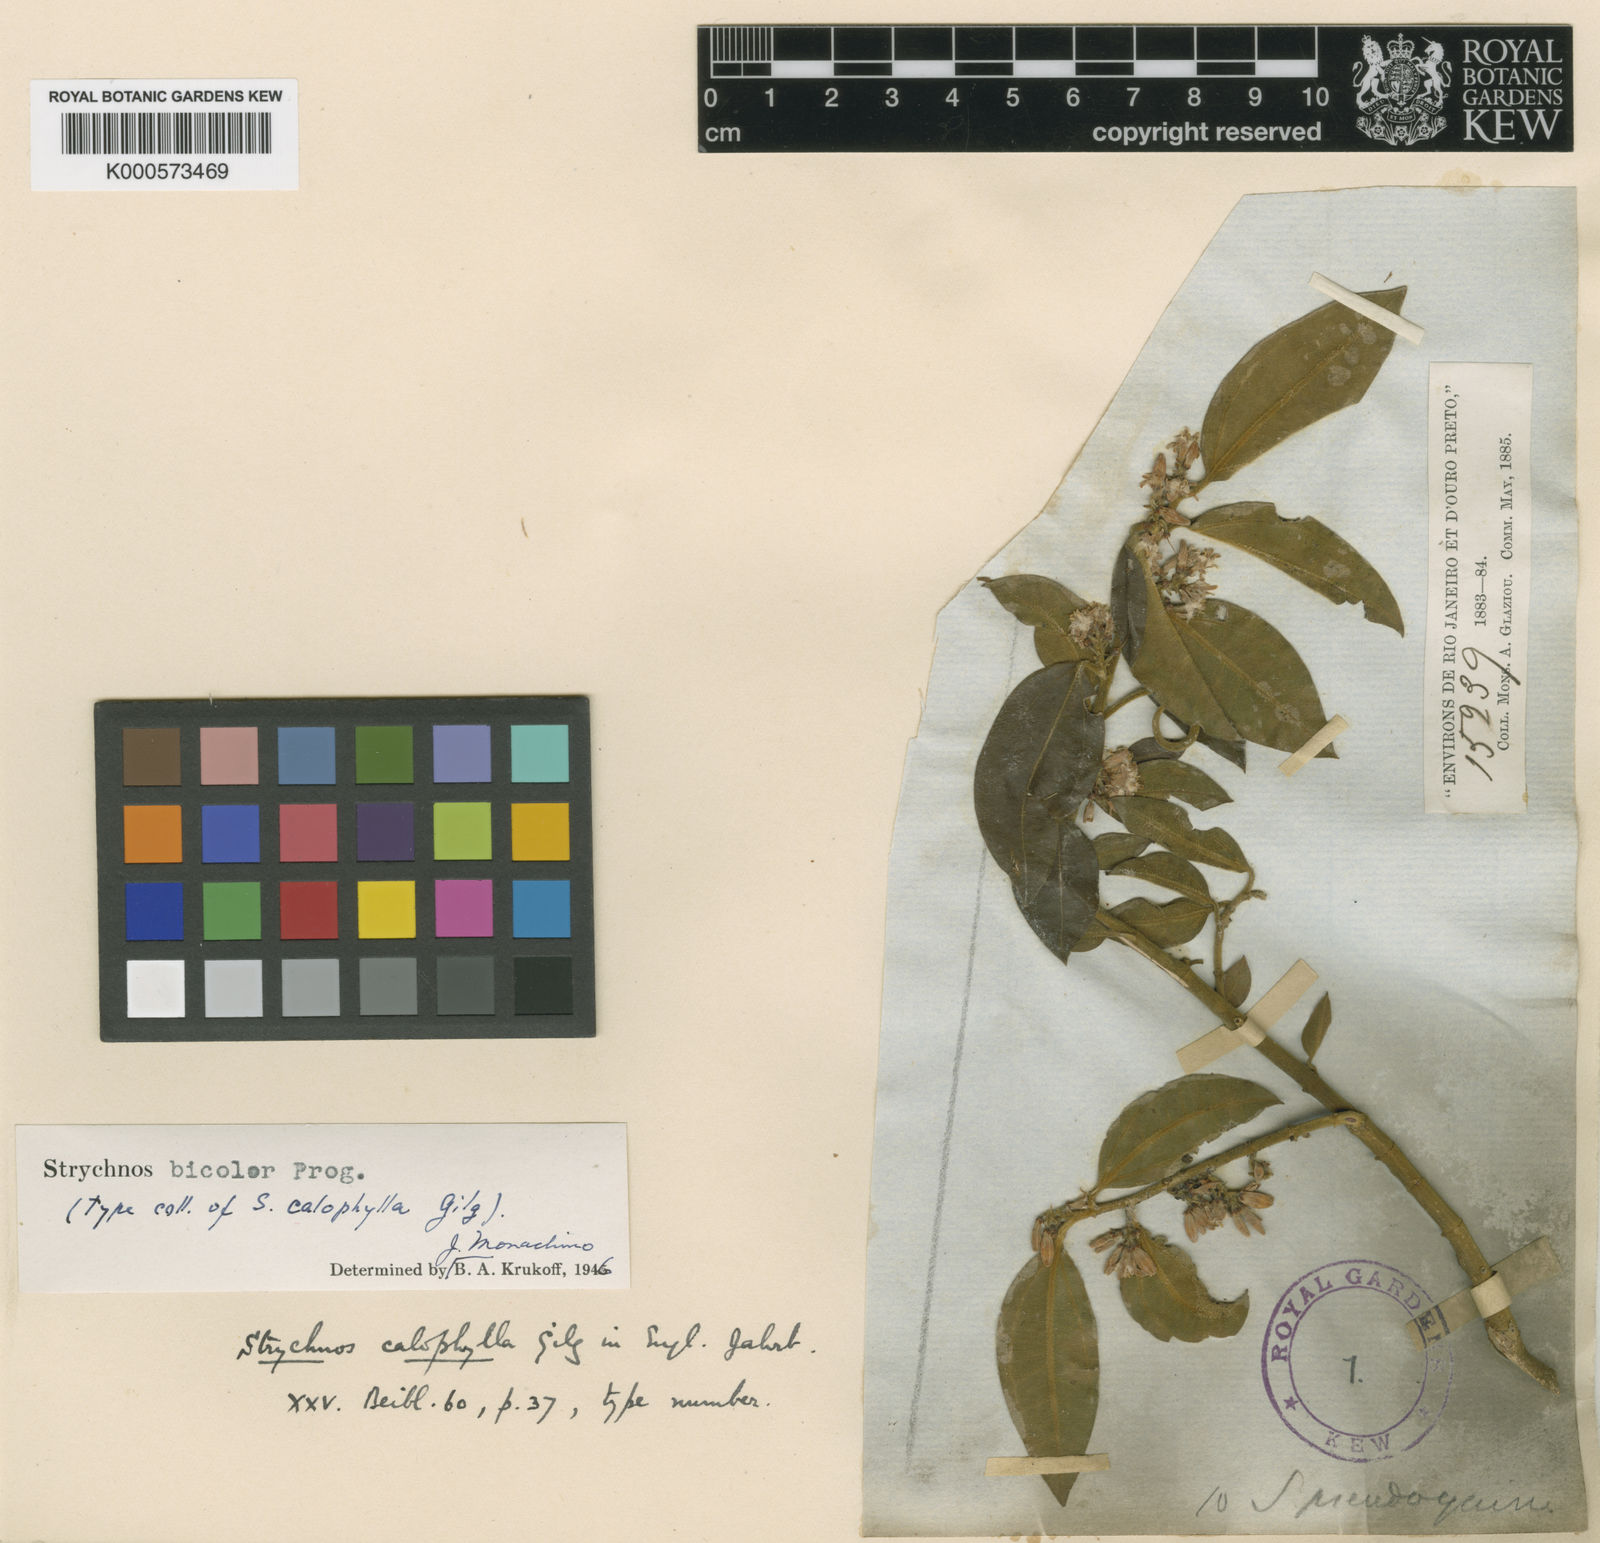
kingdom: Plantae
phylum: Tracheophyta
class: Magnoliopsida
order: Gentianales
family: Loganiaceae
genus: Strychnos
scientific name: Strychnos bicolor
